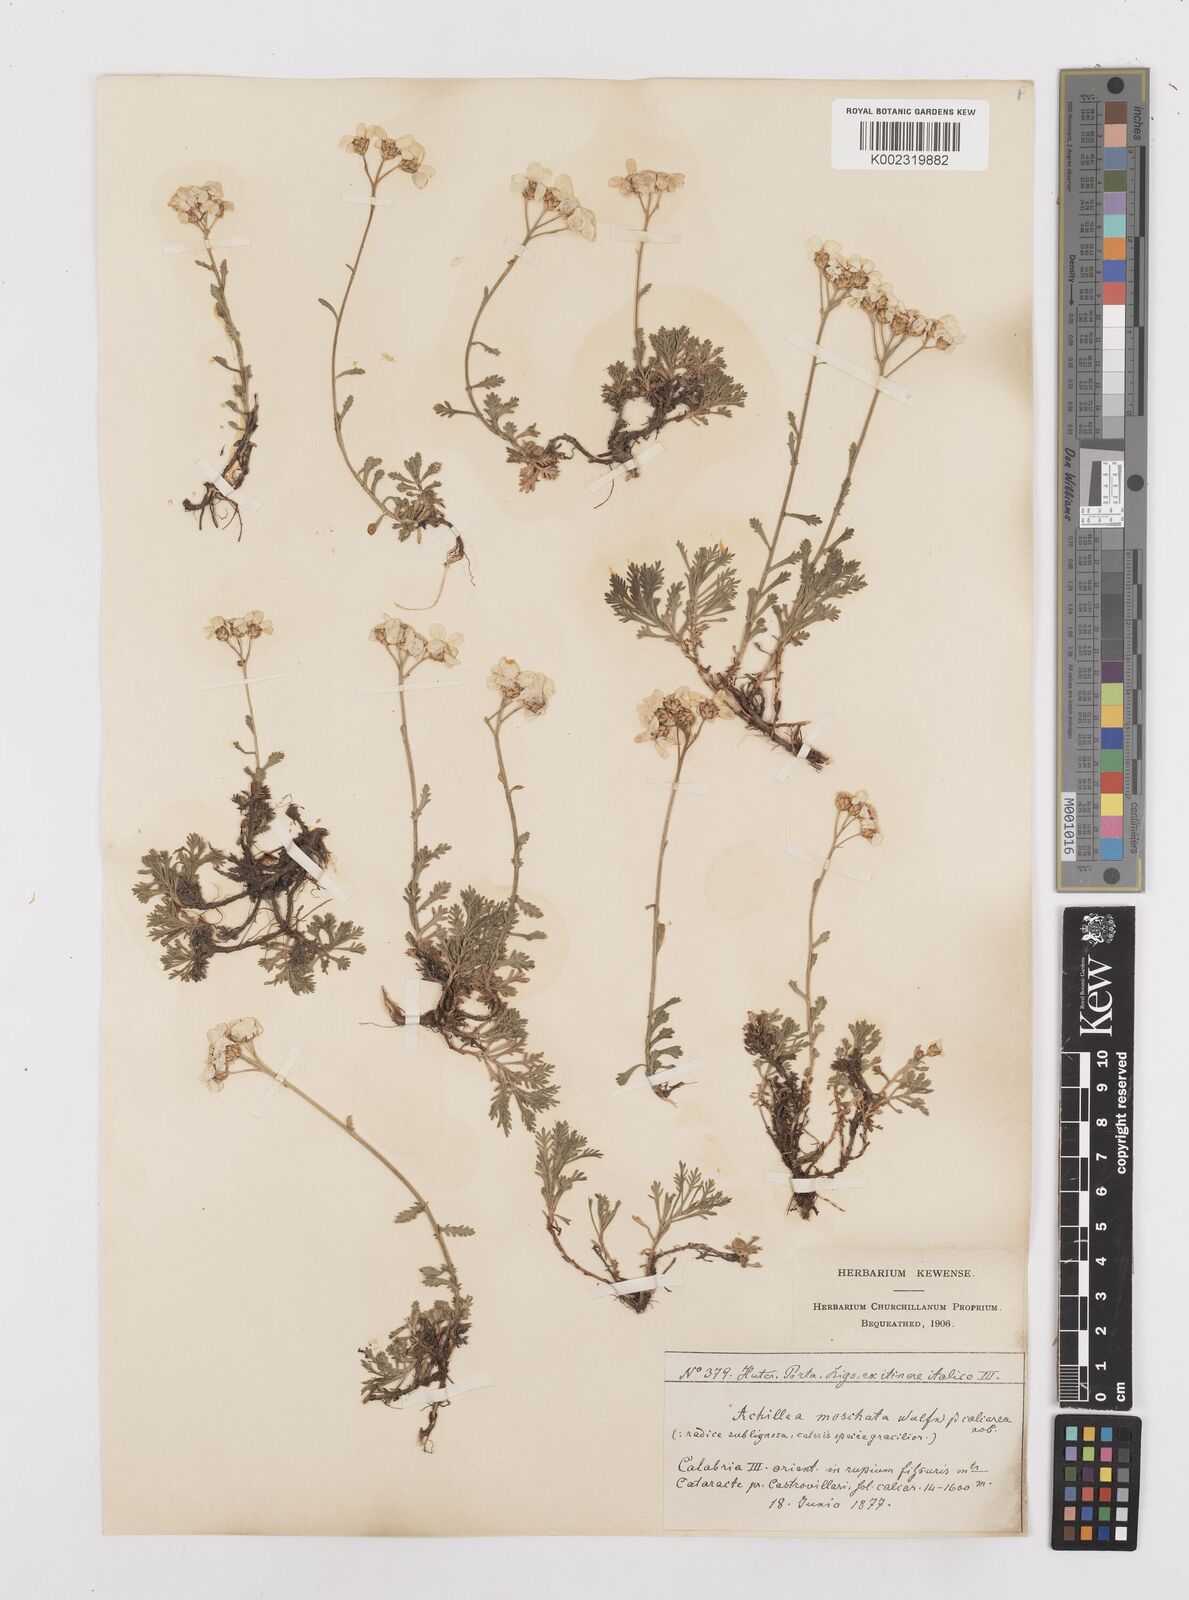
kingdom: Plantae
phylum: Tracheophyta
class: Magnoliopsida
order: Asterales
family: Asteraceae
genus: Achillea
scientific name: Achillea rupestris
